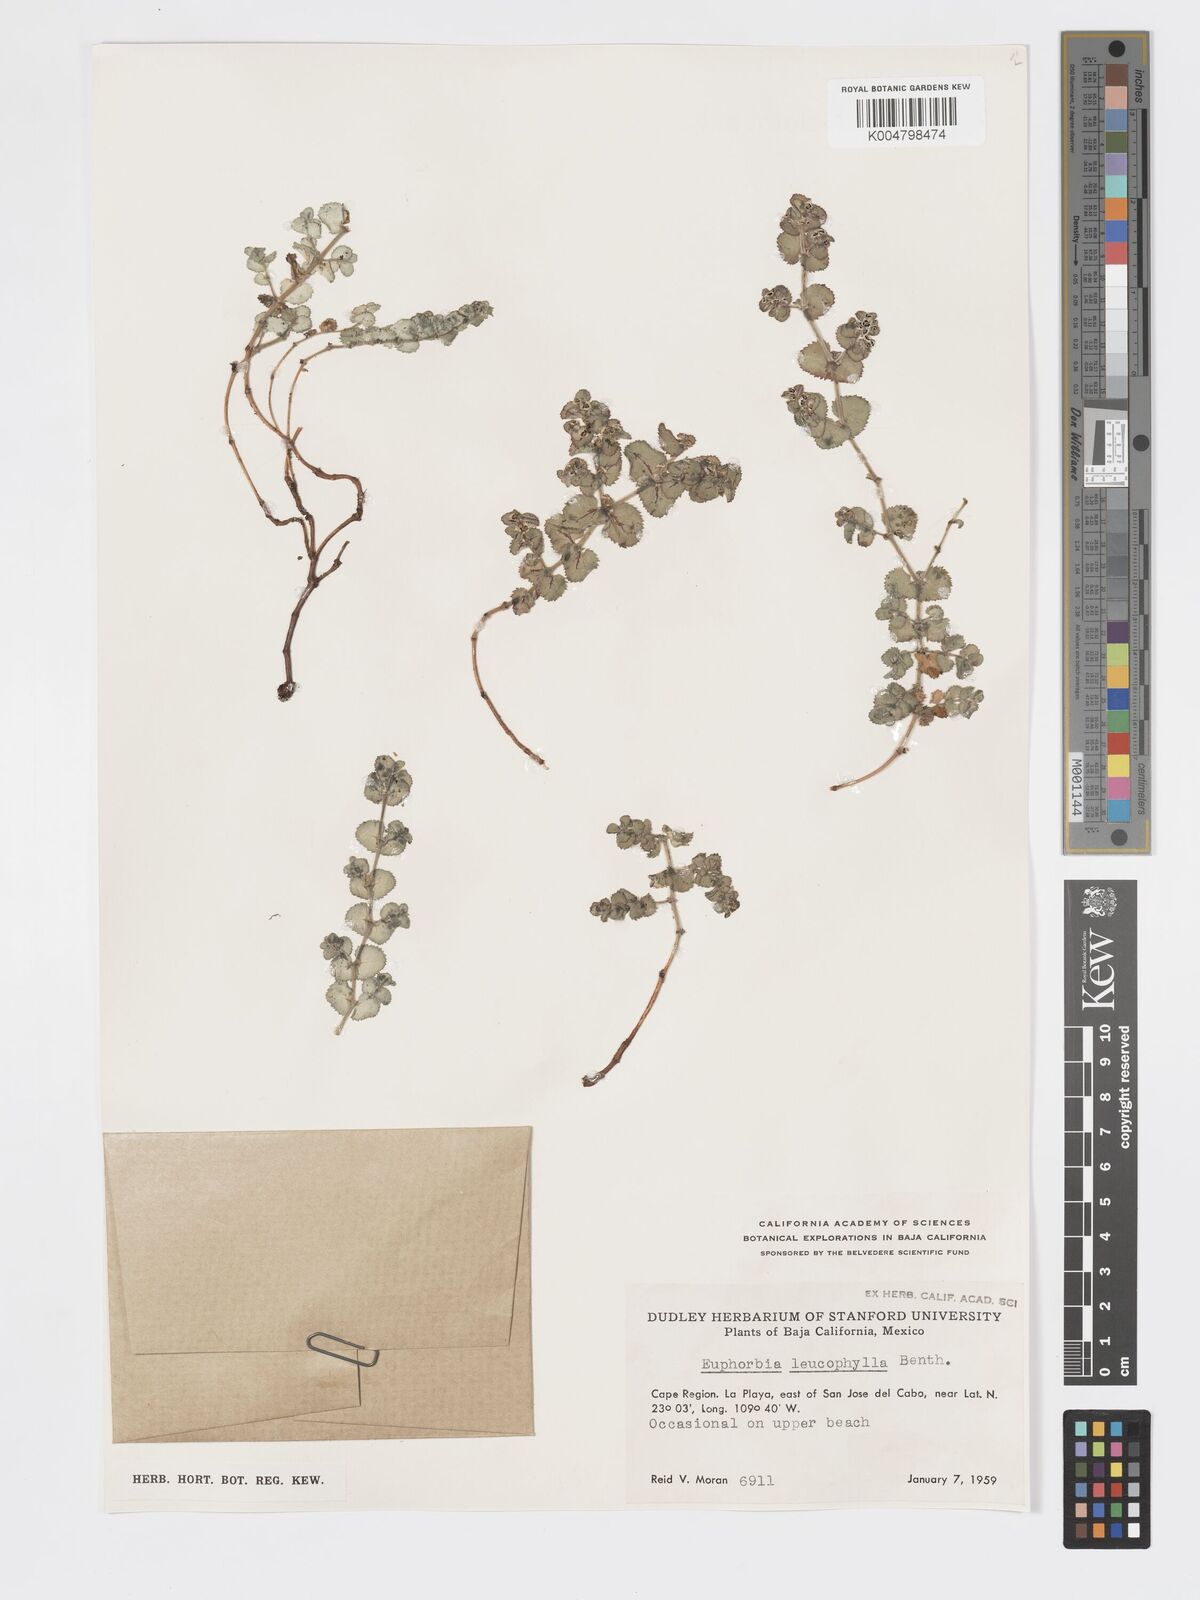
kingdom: Plantae
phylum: Tracheophyta
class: Magnoliopsida
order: Malpighiales
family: Euphorbiaceae
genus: Euphorbia
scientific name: Euphorbia leucophylla
